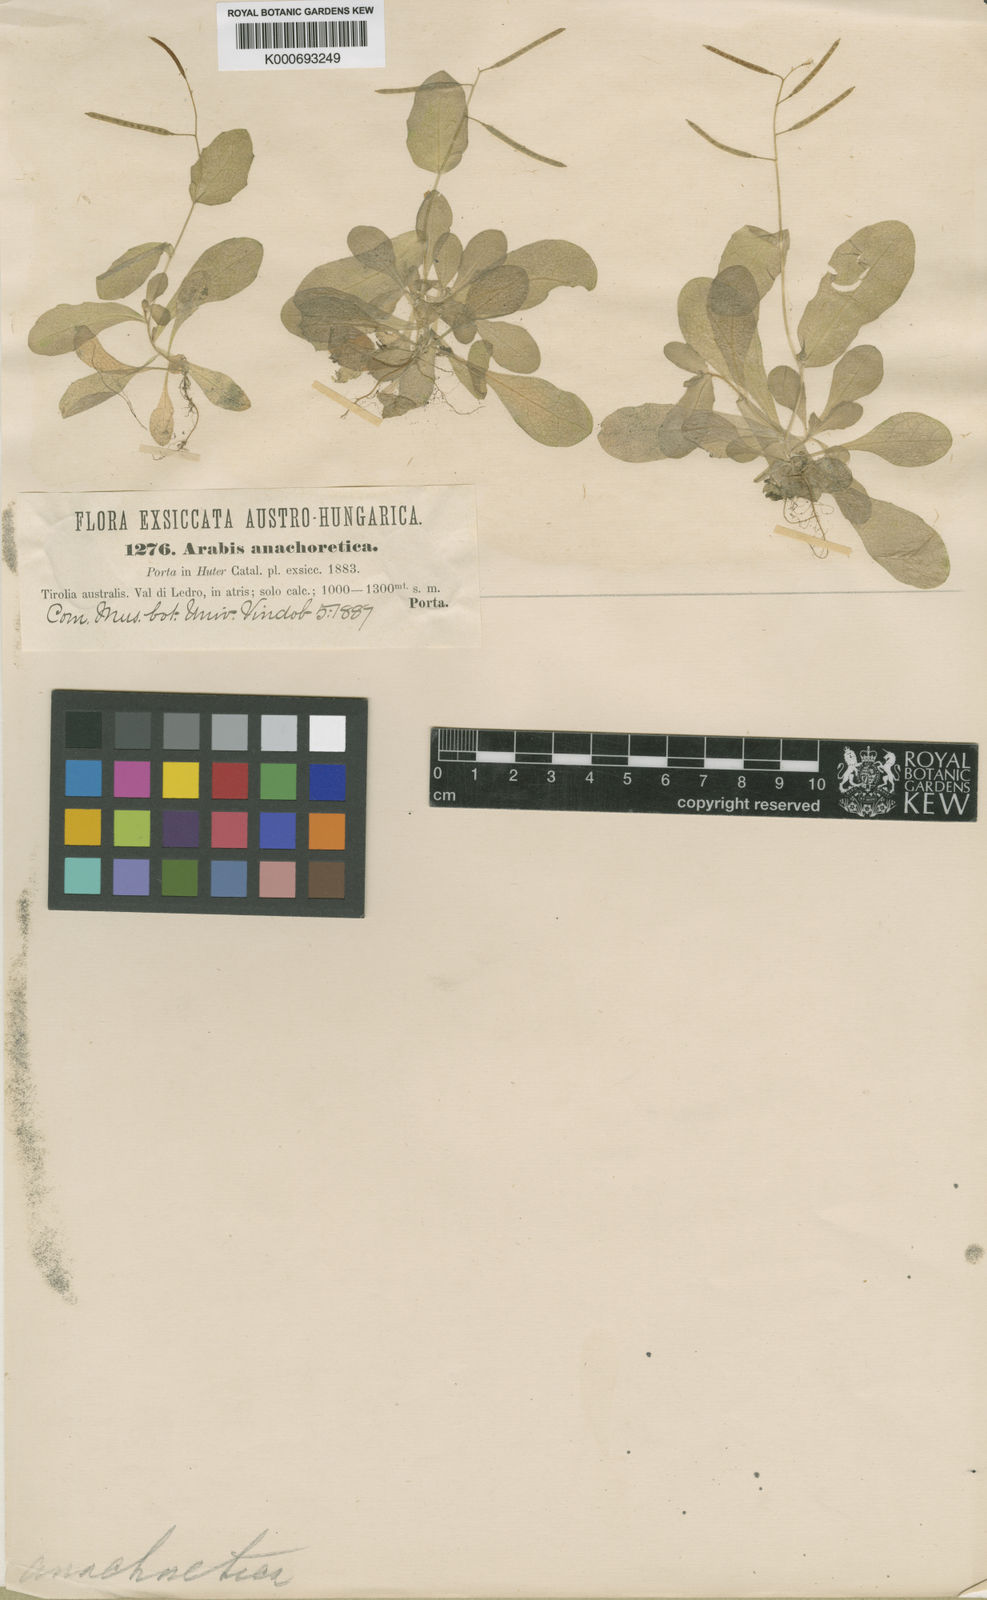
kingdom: Plantae
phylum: Tracheophyta
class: Magnoliopsida
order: Brassicales
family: Brassicaceae
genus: Arabis
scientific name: Arabis anachoretica
